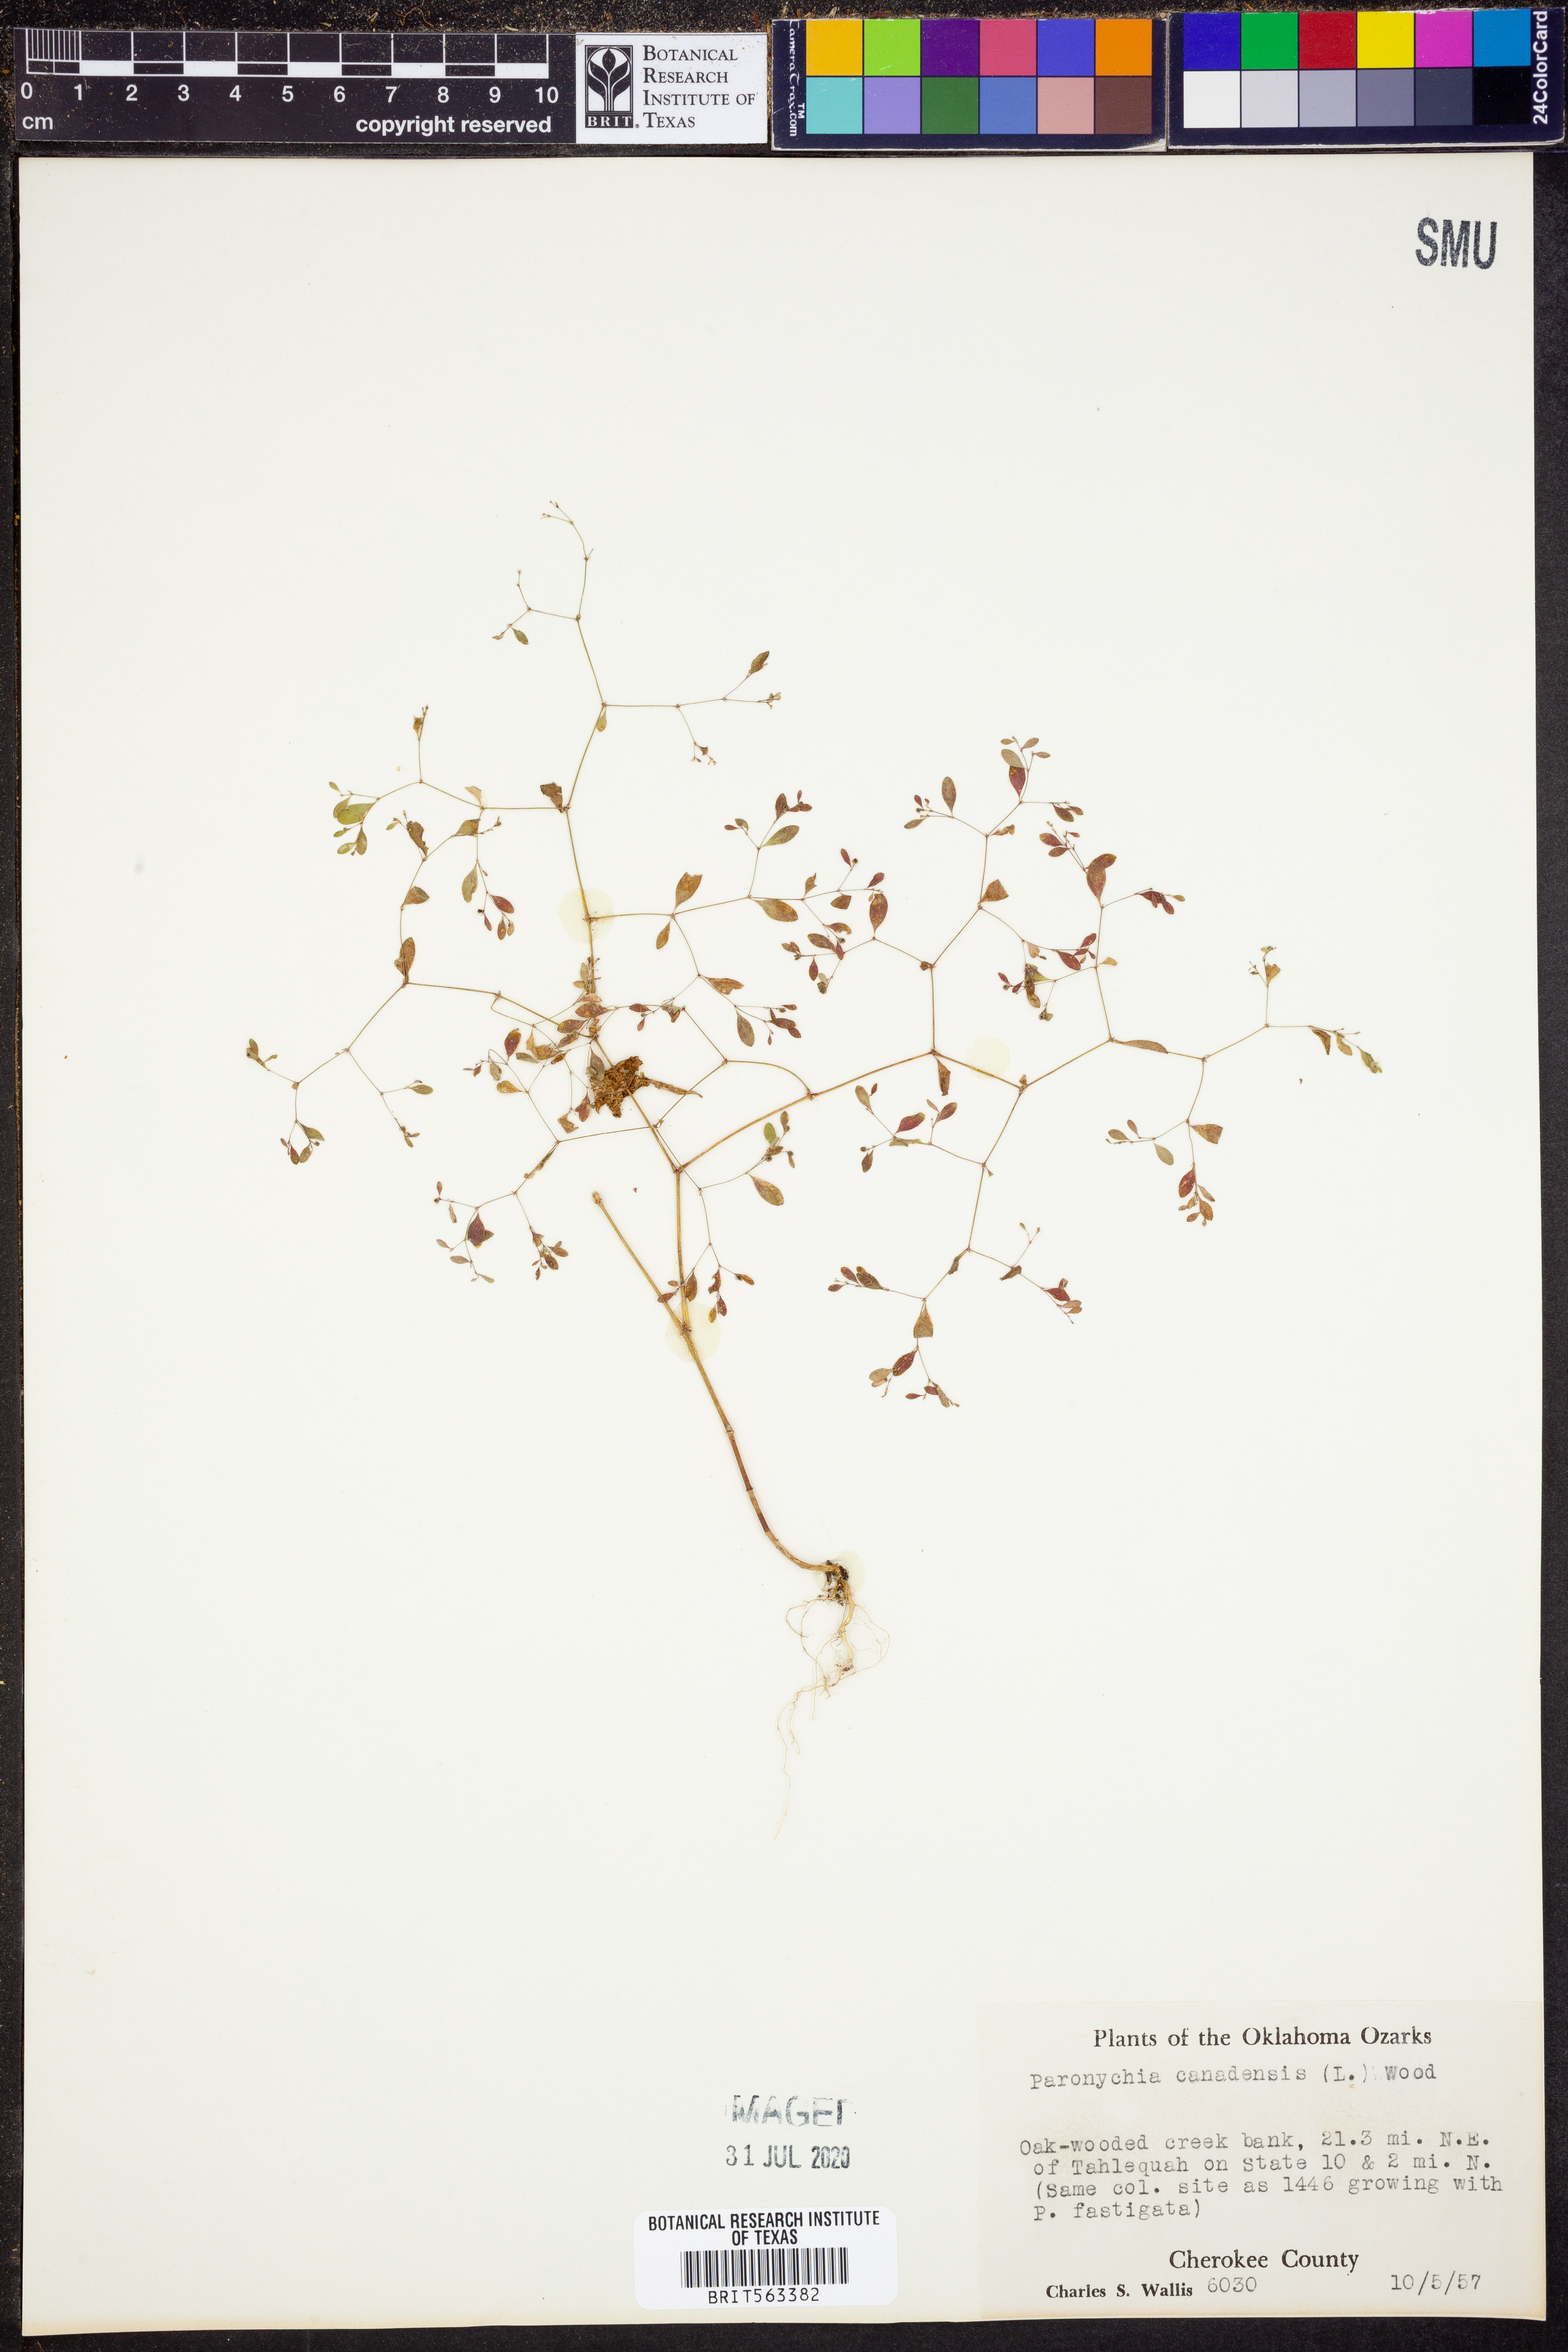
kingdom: Plantae
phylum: Tracheophyta
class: Magnoliopsida
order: Caryophyllales
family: Caryophyllaceae
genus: Paronychia
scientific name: Paronychia canadensis
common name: Canada forked nailwort
